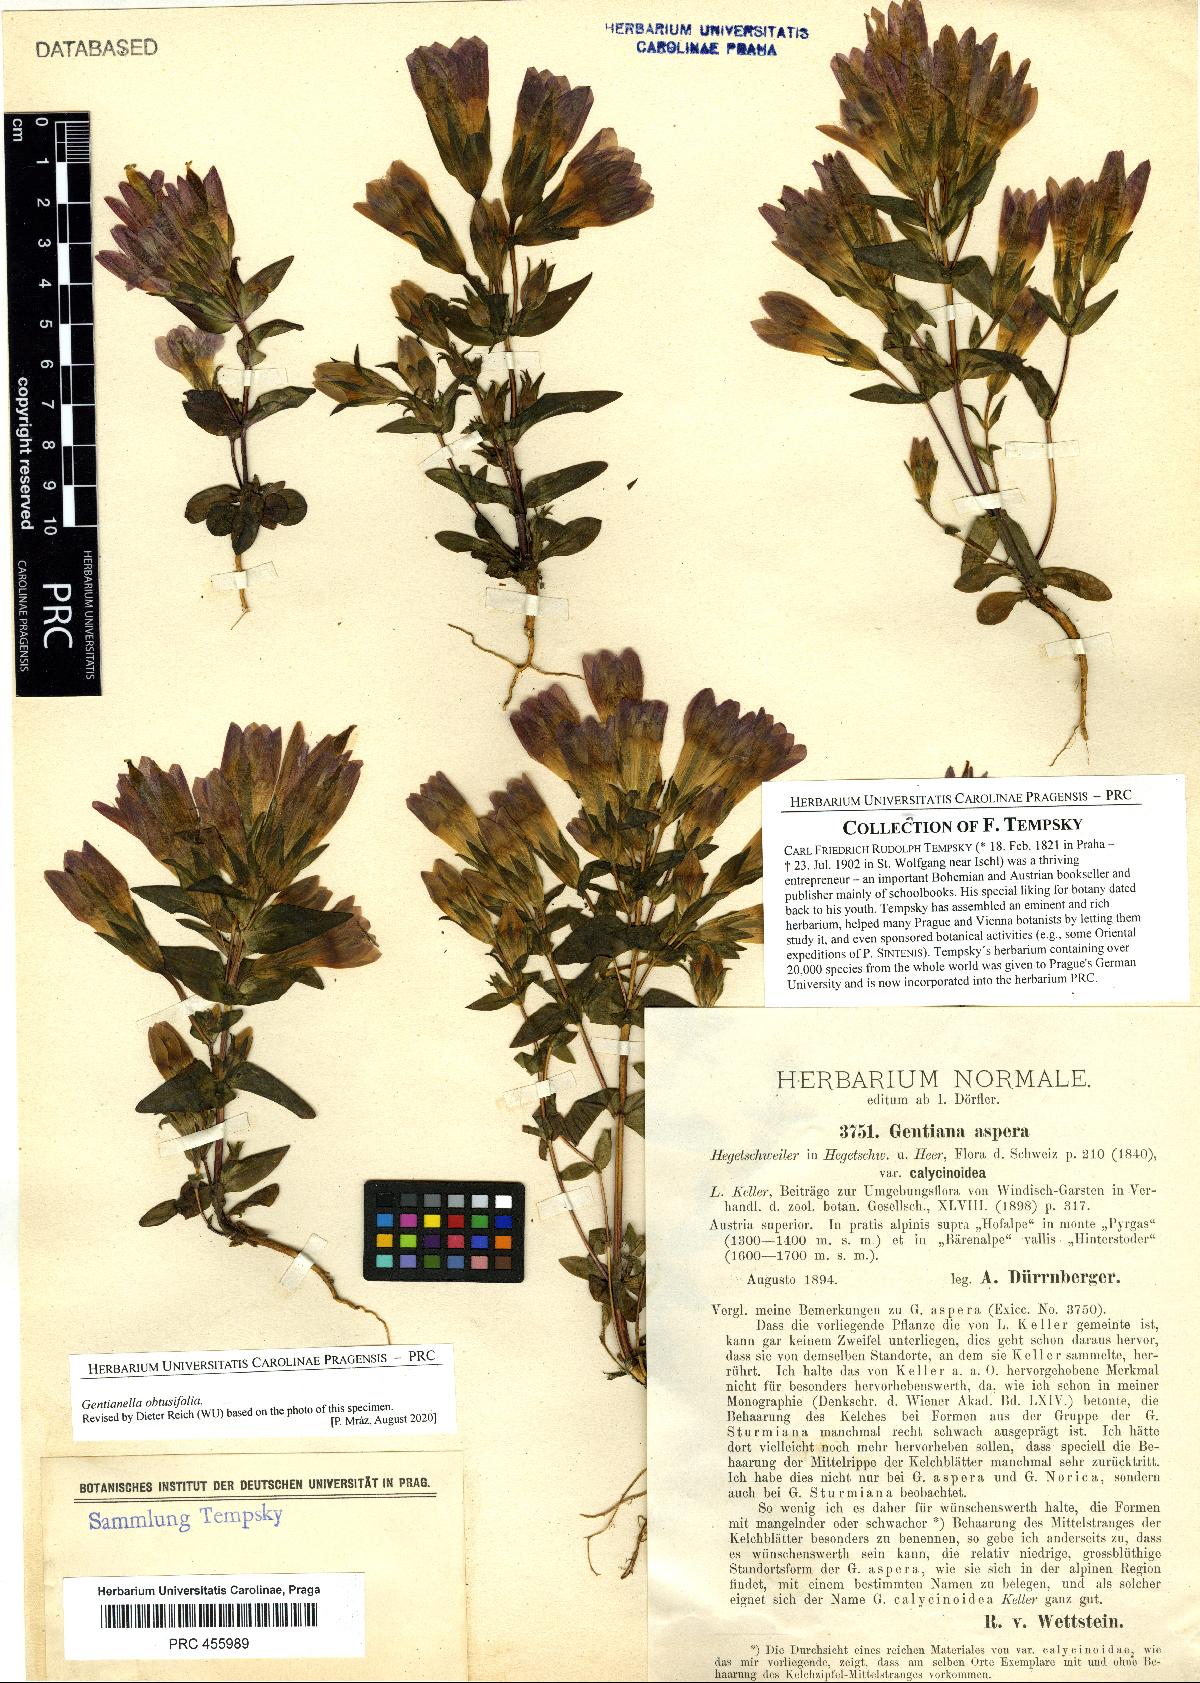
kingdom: Plantae
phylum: Tracheophyta
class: Magnoliopsida
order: Gentianales
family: Gentianaceae
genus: Gentianella
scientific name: Gentianella obtusifolia
